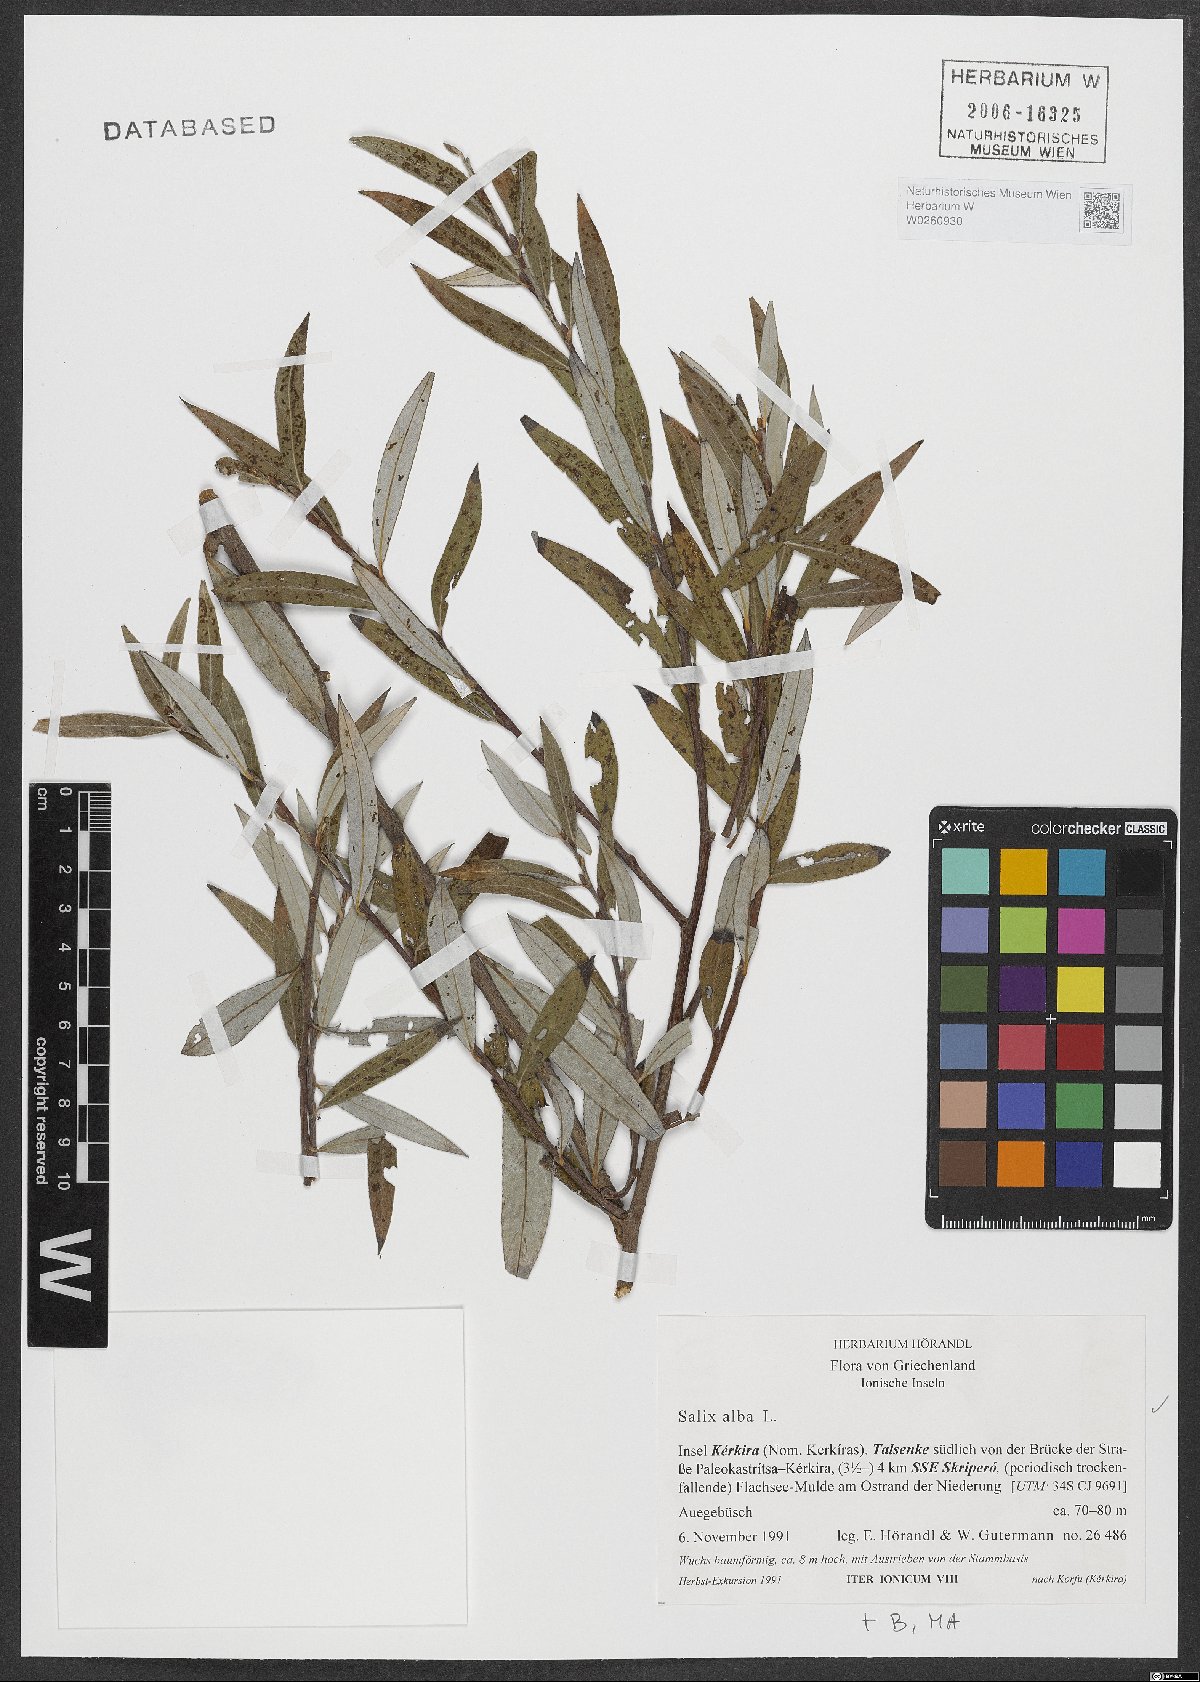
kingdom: Plantae
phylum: Tracheophyta
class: Magnoliopsida
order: Malpighiales
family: Salicaceae
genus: Salix
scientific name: Salix alba
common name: White willow
